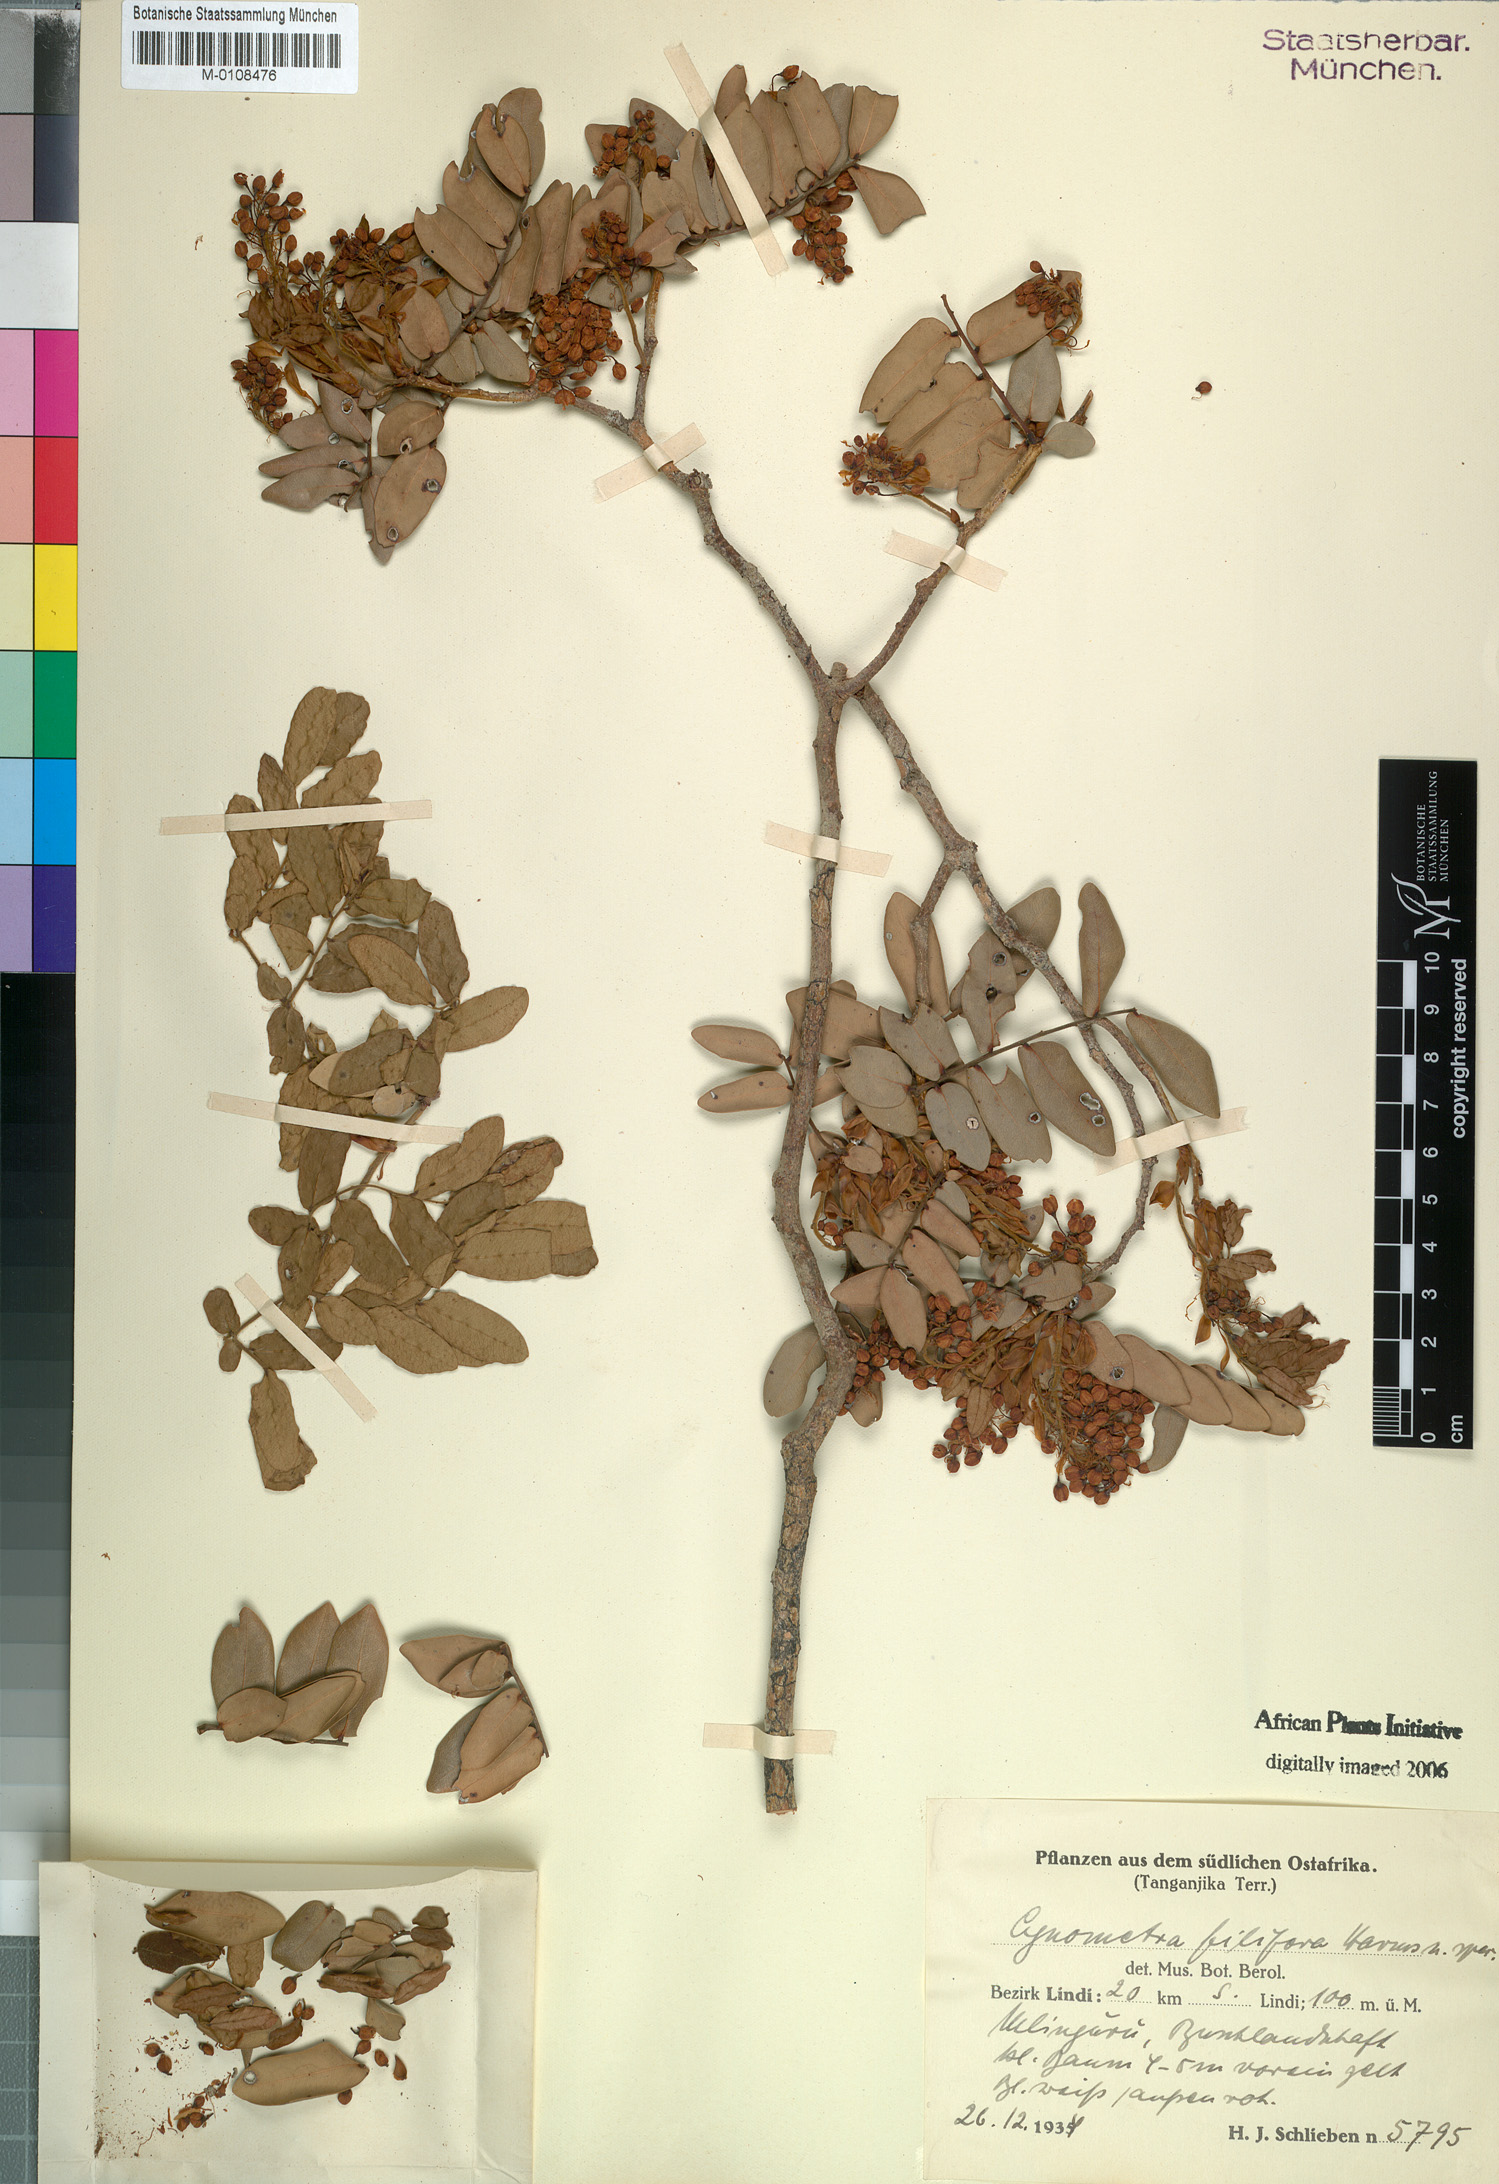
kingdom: Plantae
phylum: Tracheophyta
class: Magnoliopsida
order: Fabales
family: Fabaceae
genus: Cynometra
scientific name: Cynometra filifera
